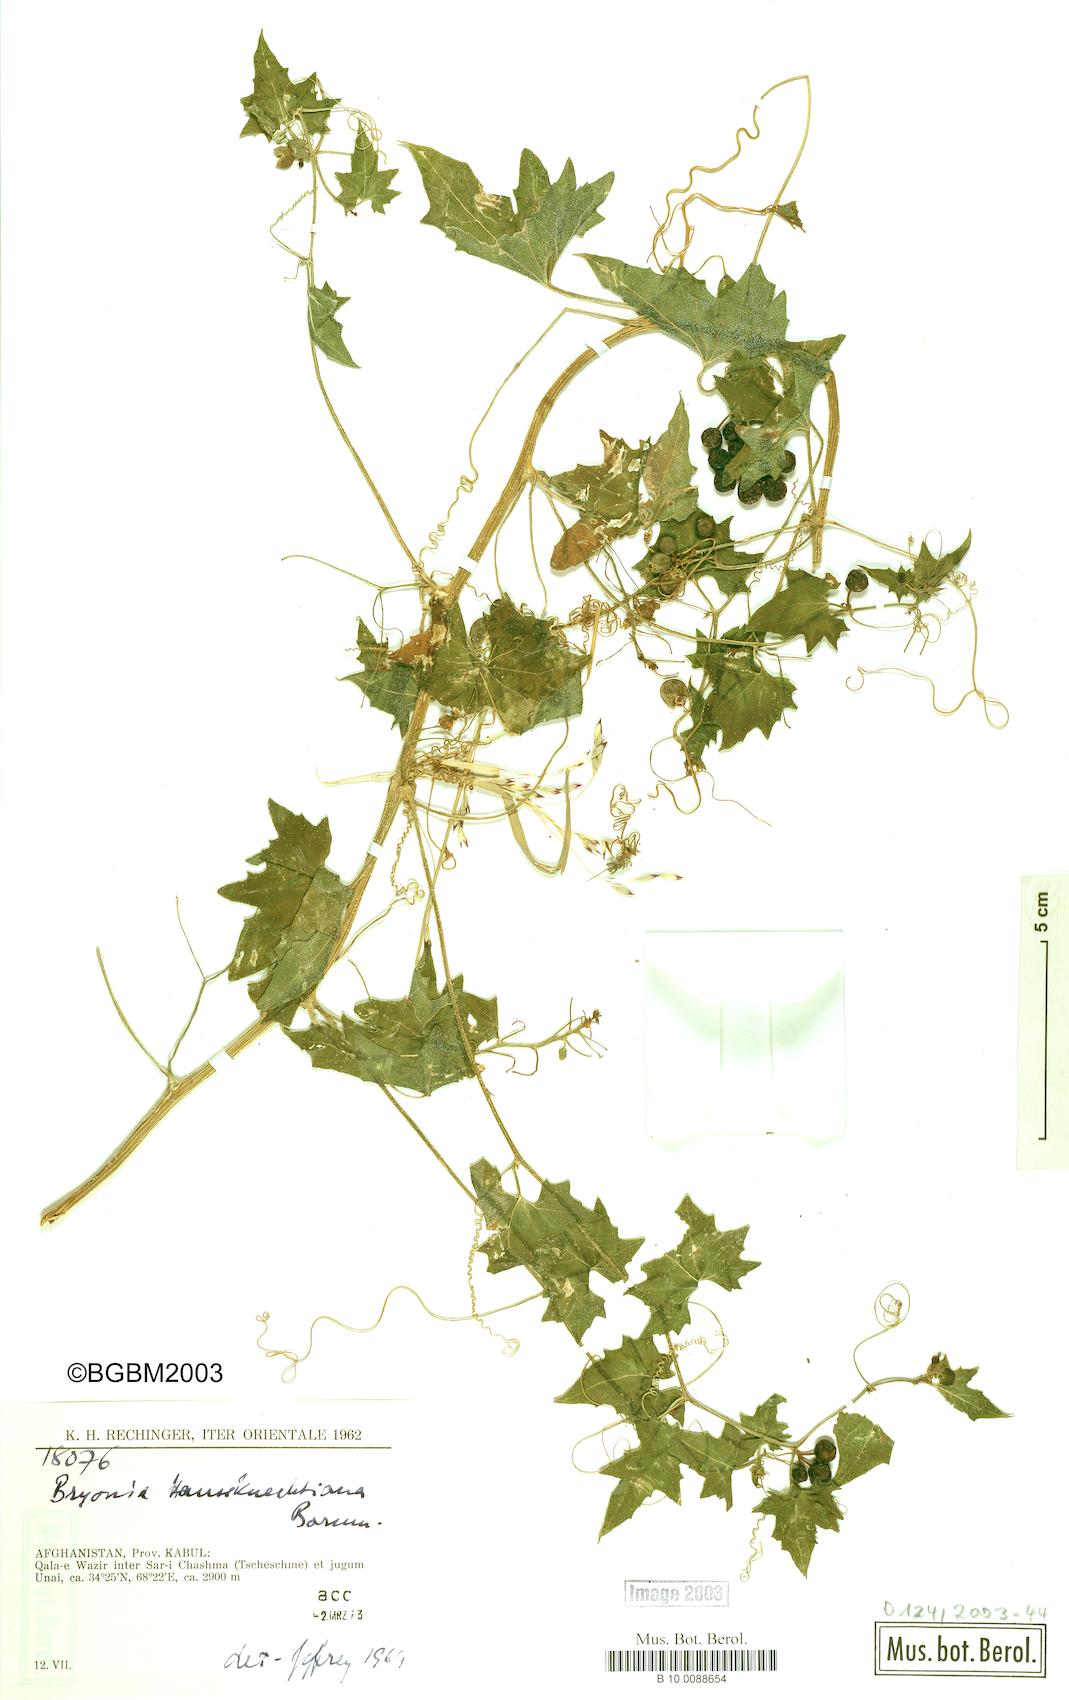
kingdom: Plantae
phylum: Tracheophyta
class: Magnoliopsida
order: Cucurbitales
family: Cucurbitaceae
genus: Bryonia
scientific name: Bryonia aspera
